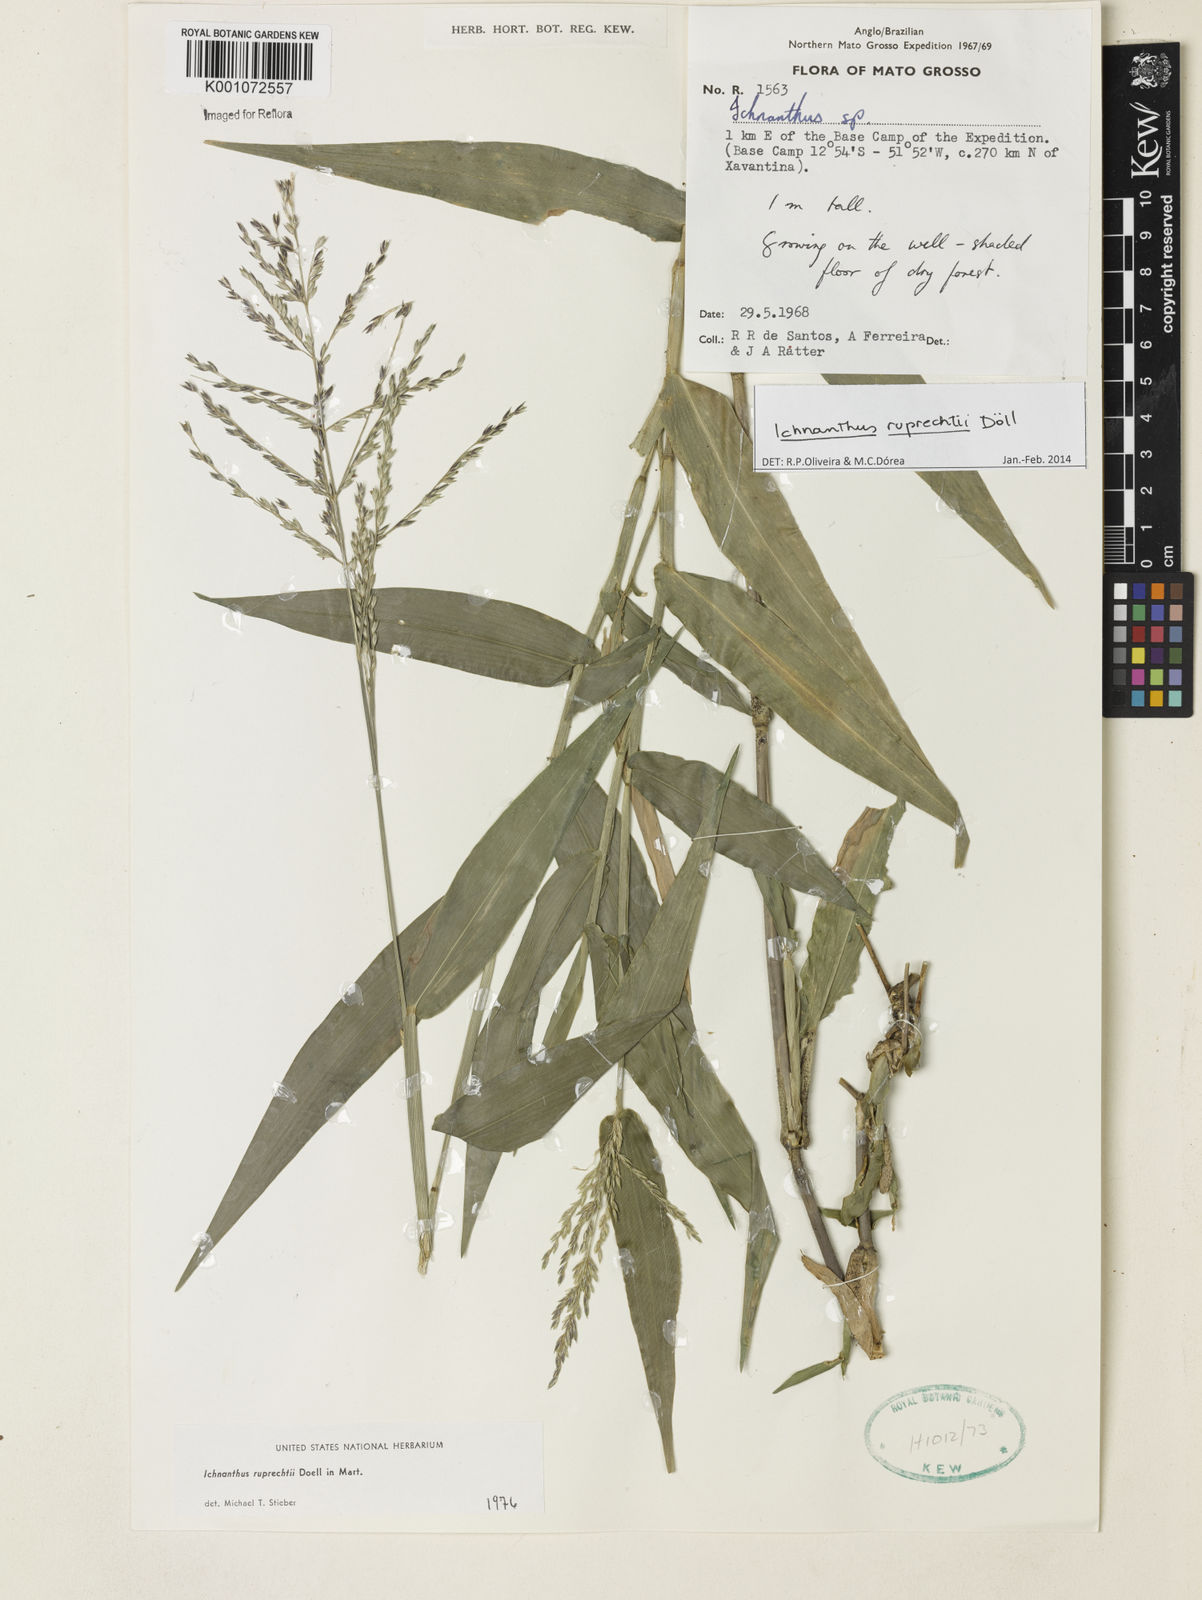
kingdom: Plantae
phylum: Tracheophyta
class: Liliopsida
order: Poales
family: Poaceae
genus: Ichnanthus
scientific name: Ichnanthus
